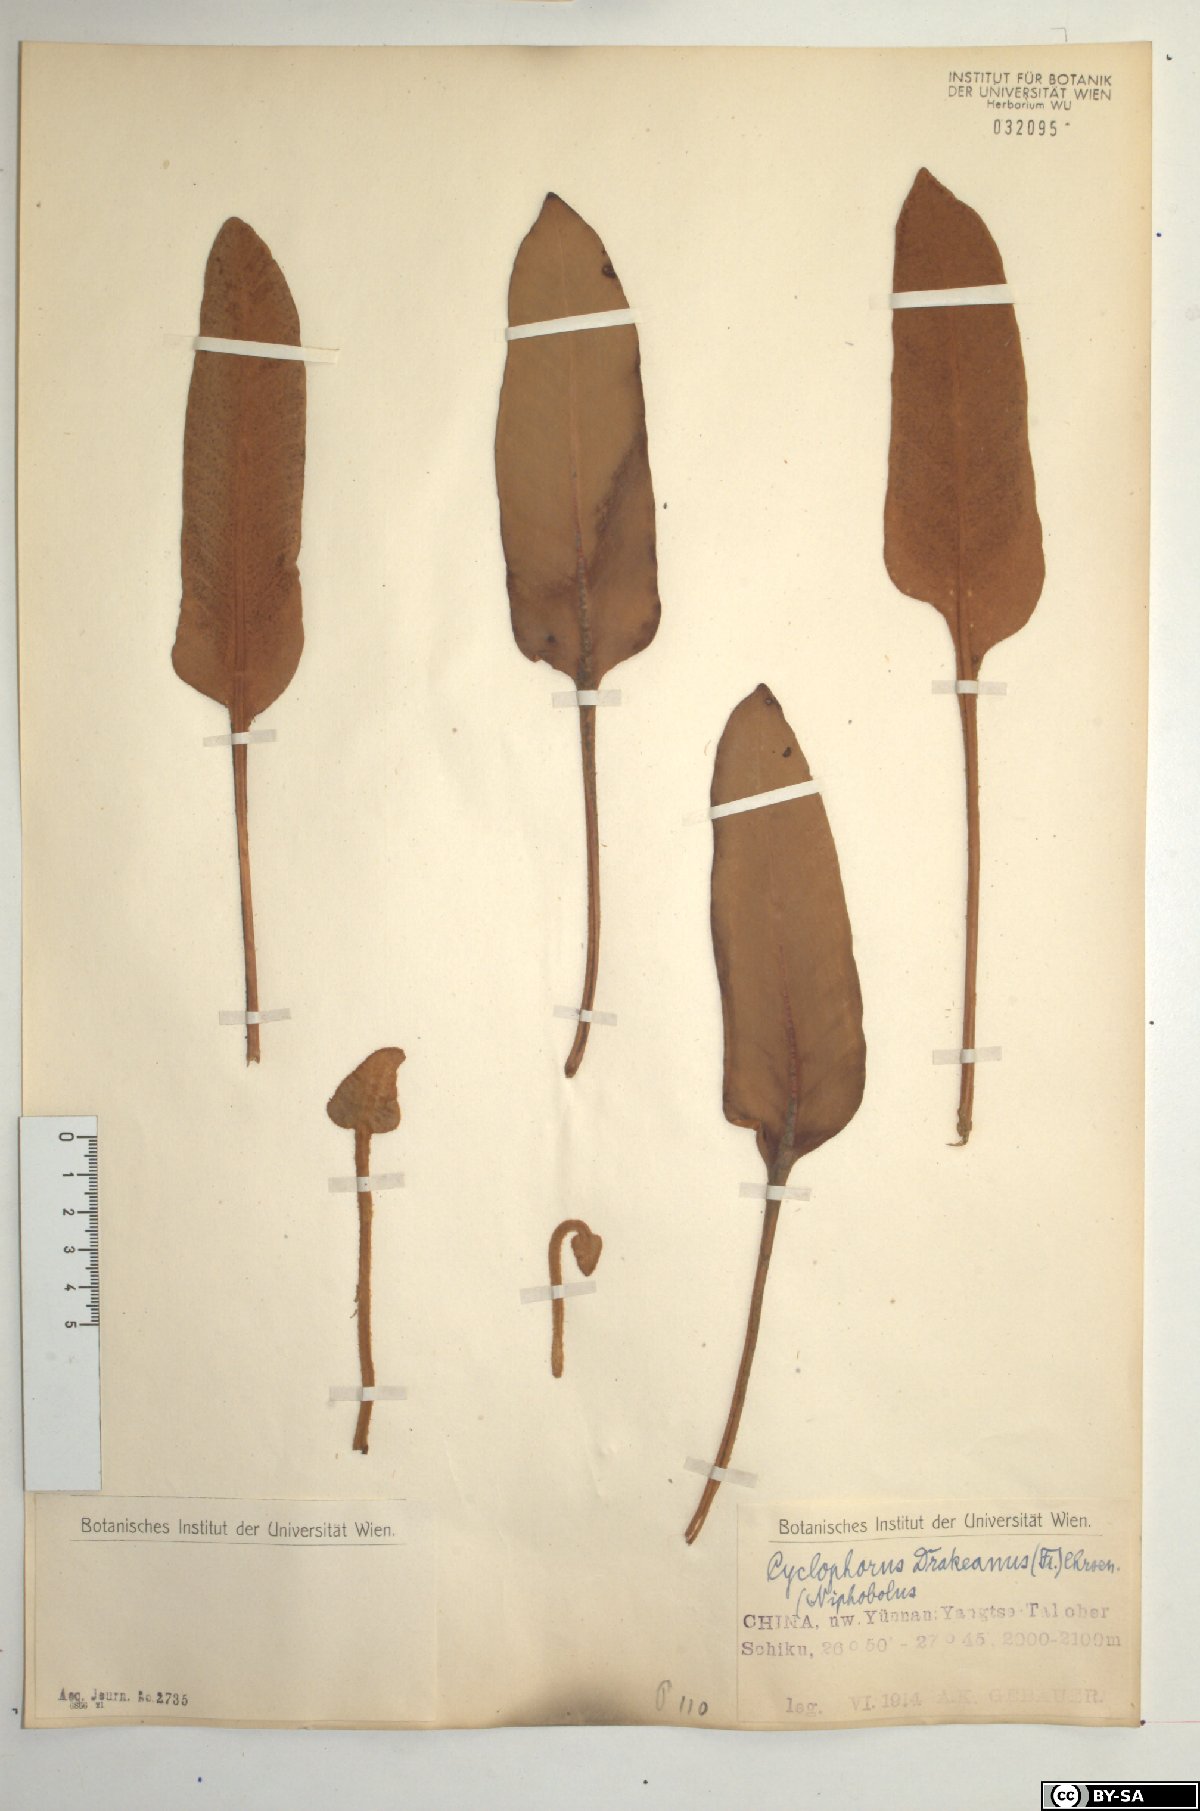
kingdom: Plantae
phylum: Tracheophyta
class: Polypodiopsida
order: Polypodiales
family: Polypodiaceae
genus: Pyrrosia
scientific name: Pyrrosia drakeana
